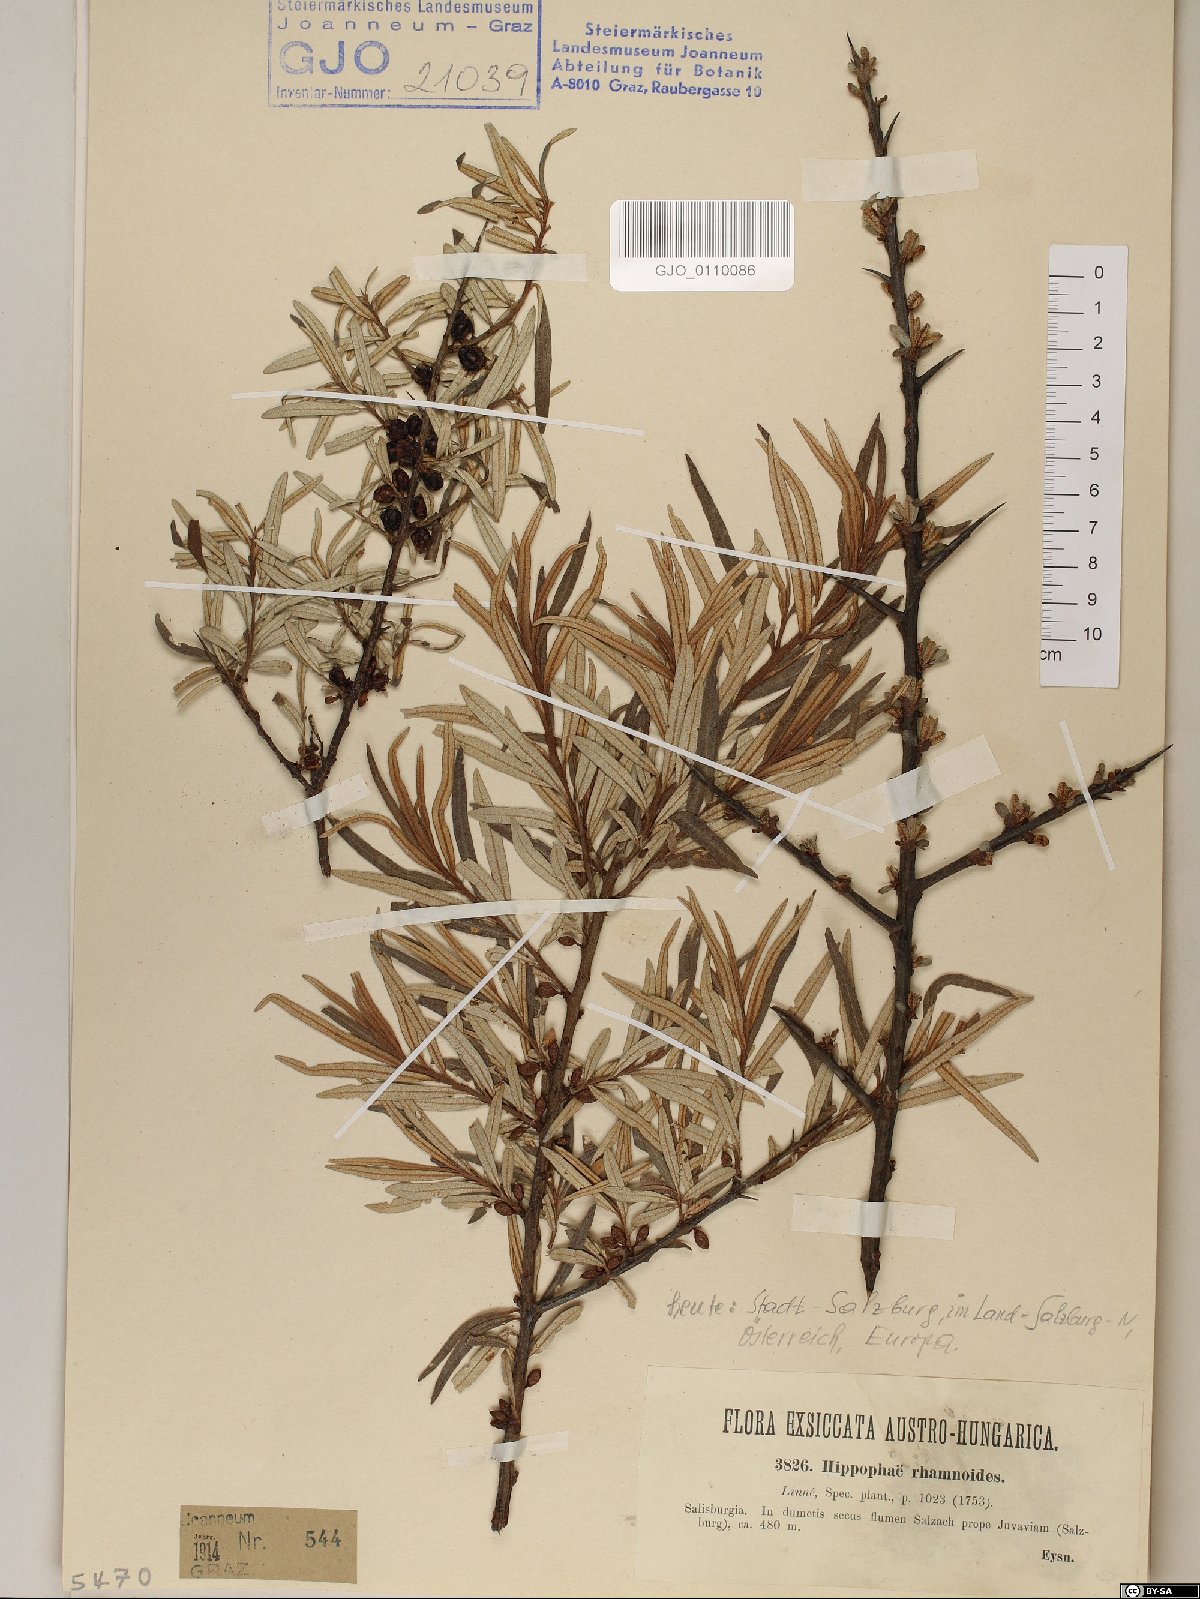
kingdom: Plantae
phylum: Tracheophyta
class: Magnoliopsida
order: Rosales
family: Elaeagnaceae
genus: Hippophae
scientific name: Hippophae rhamnoides
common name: Sea-buckthorn
